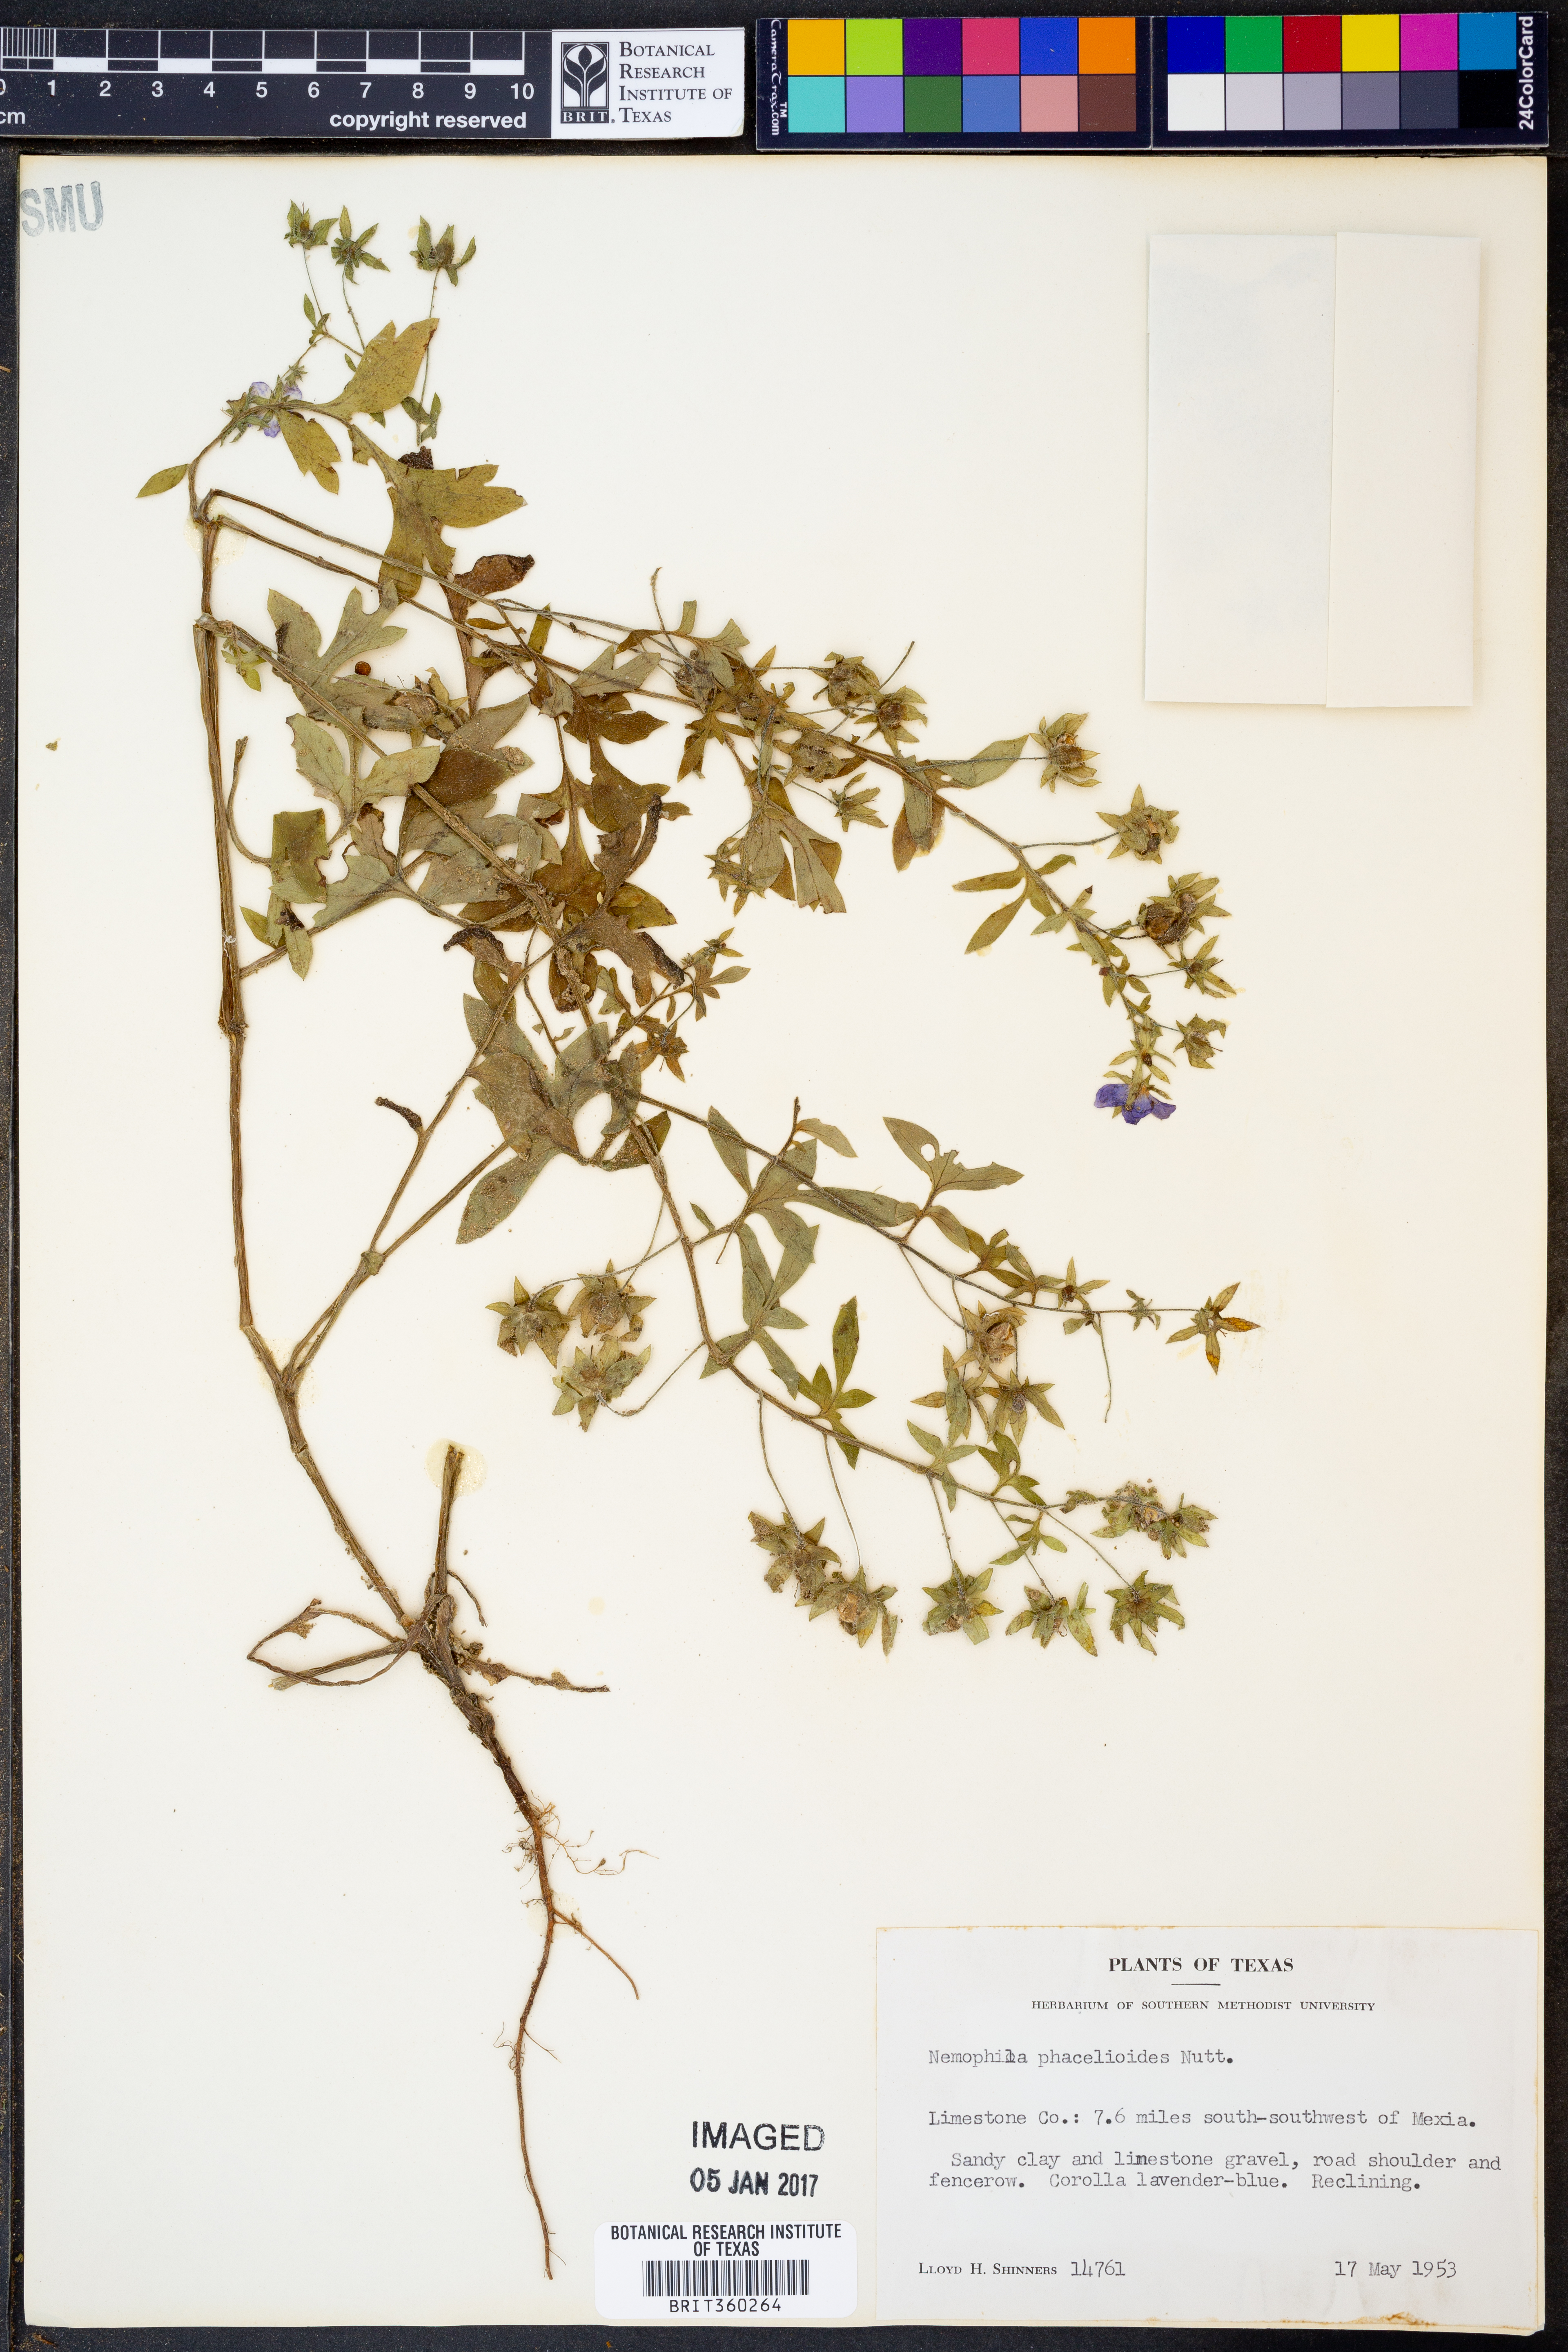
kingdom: Plantae
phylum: Tracheophyta
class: Magnoliopsida
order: Boraginales
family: Hydrophyllaceae
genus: Nemophila
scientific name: Nemophila phacelioides
